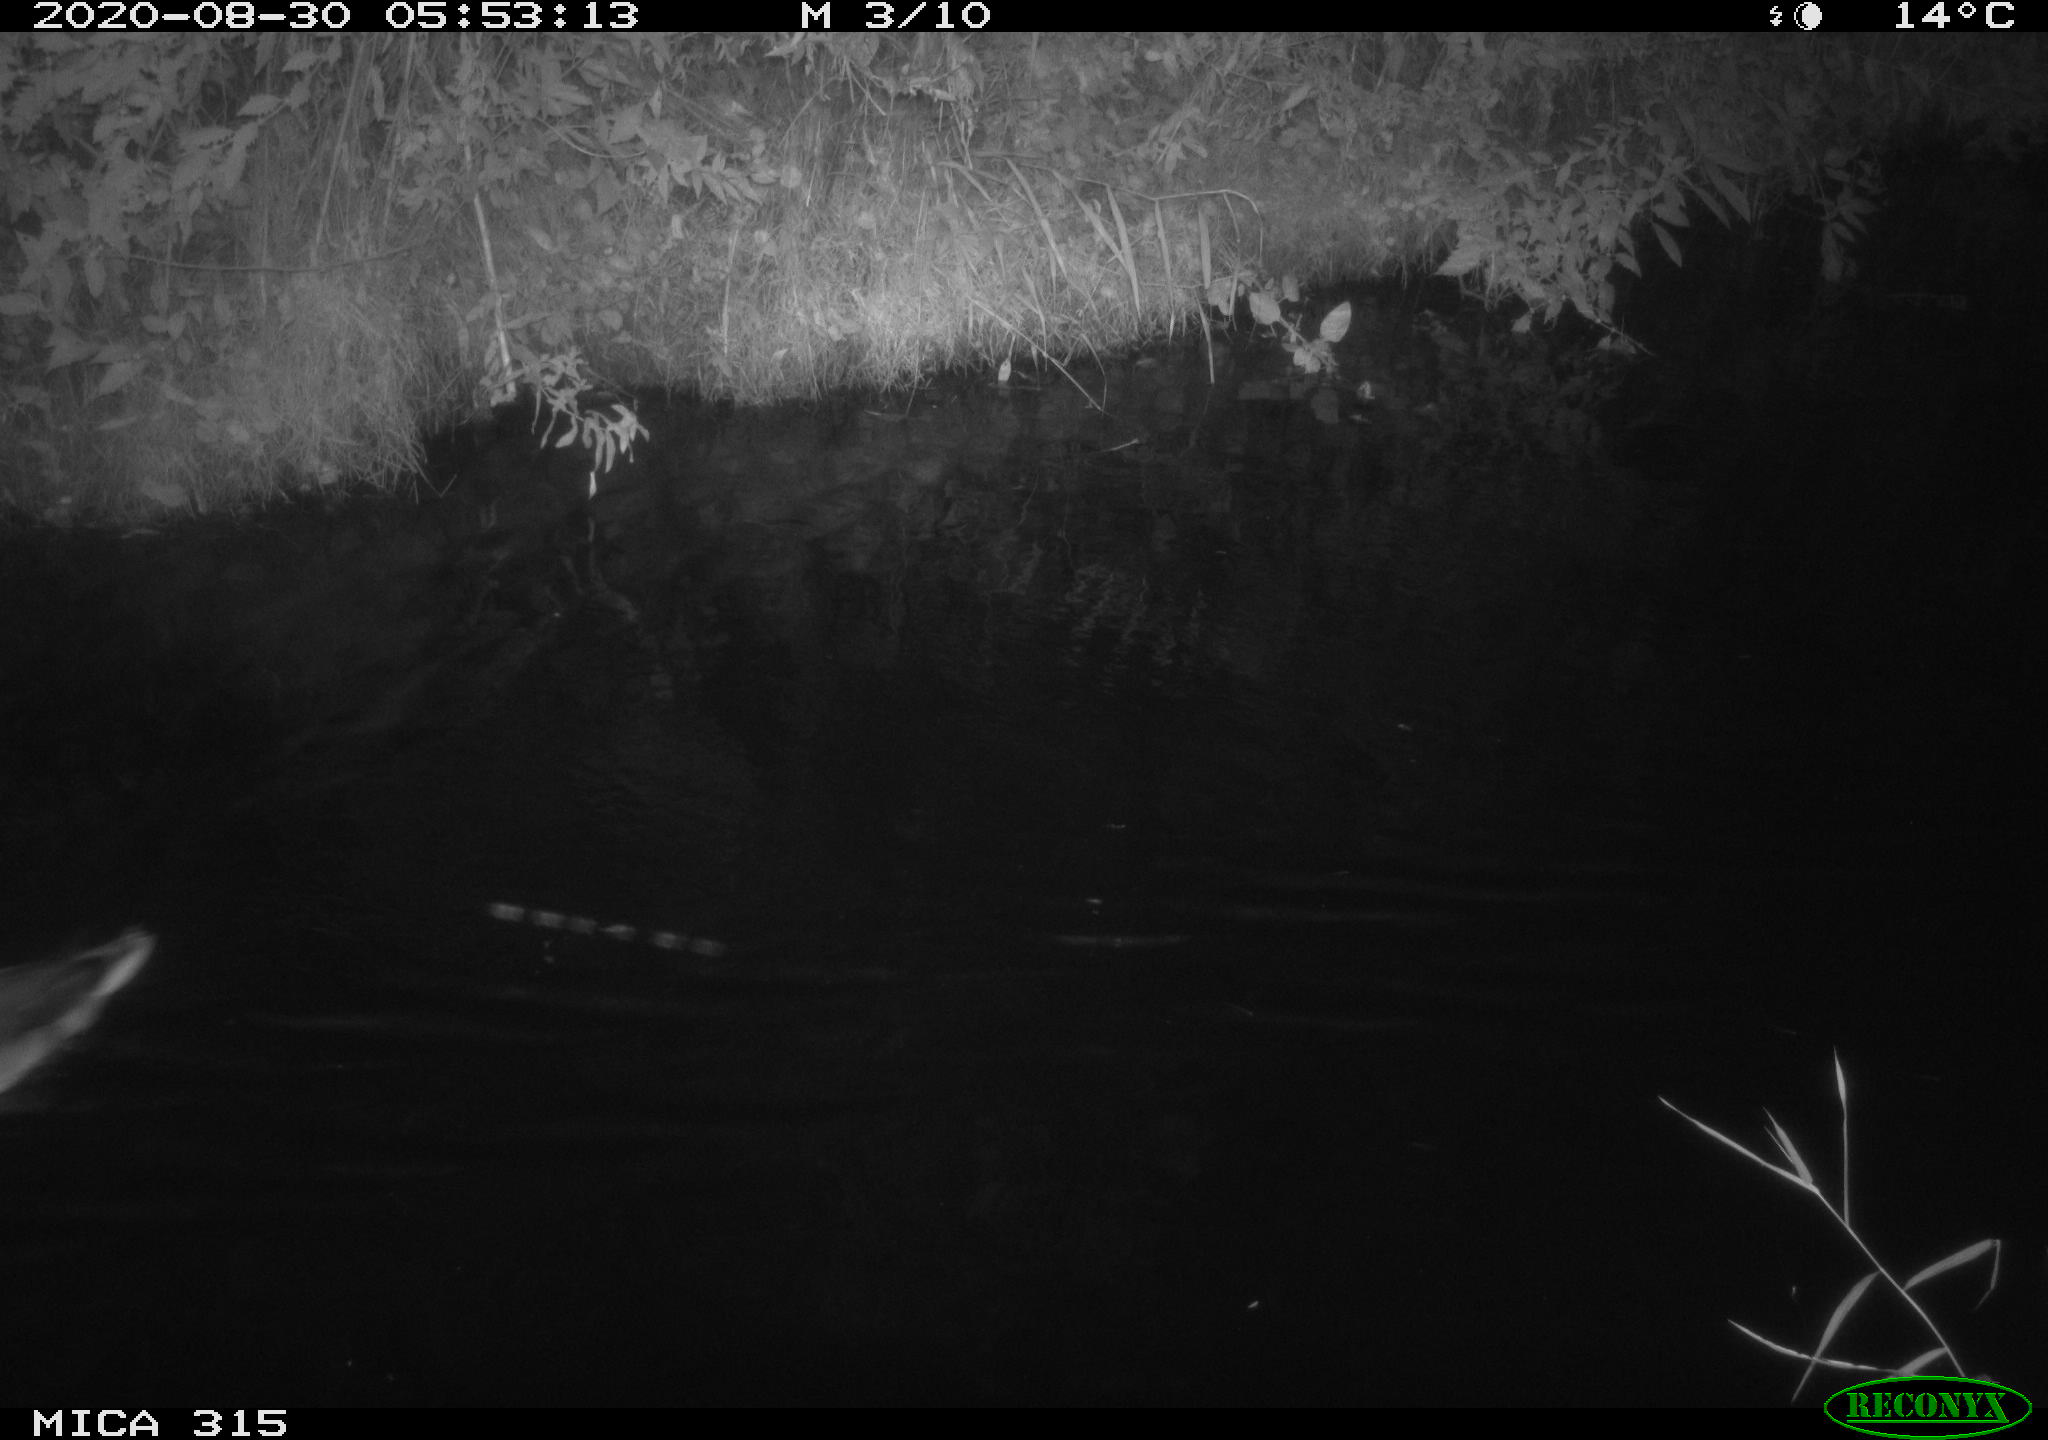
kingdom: Animalia
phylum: Chordata
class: Aves
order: Anseriformes
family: Anatidae
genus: Anas
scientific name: Anas platyrhynchos
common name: Mallard
